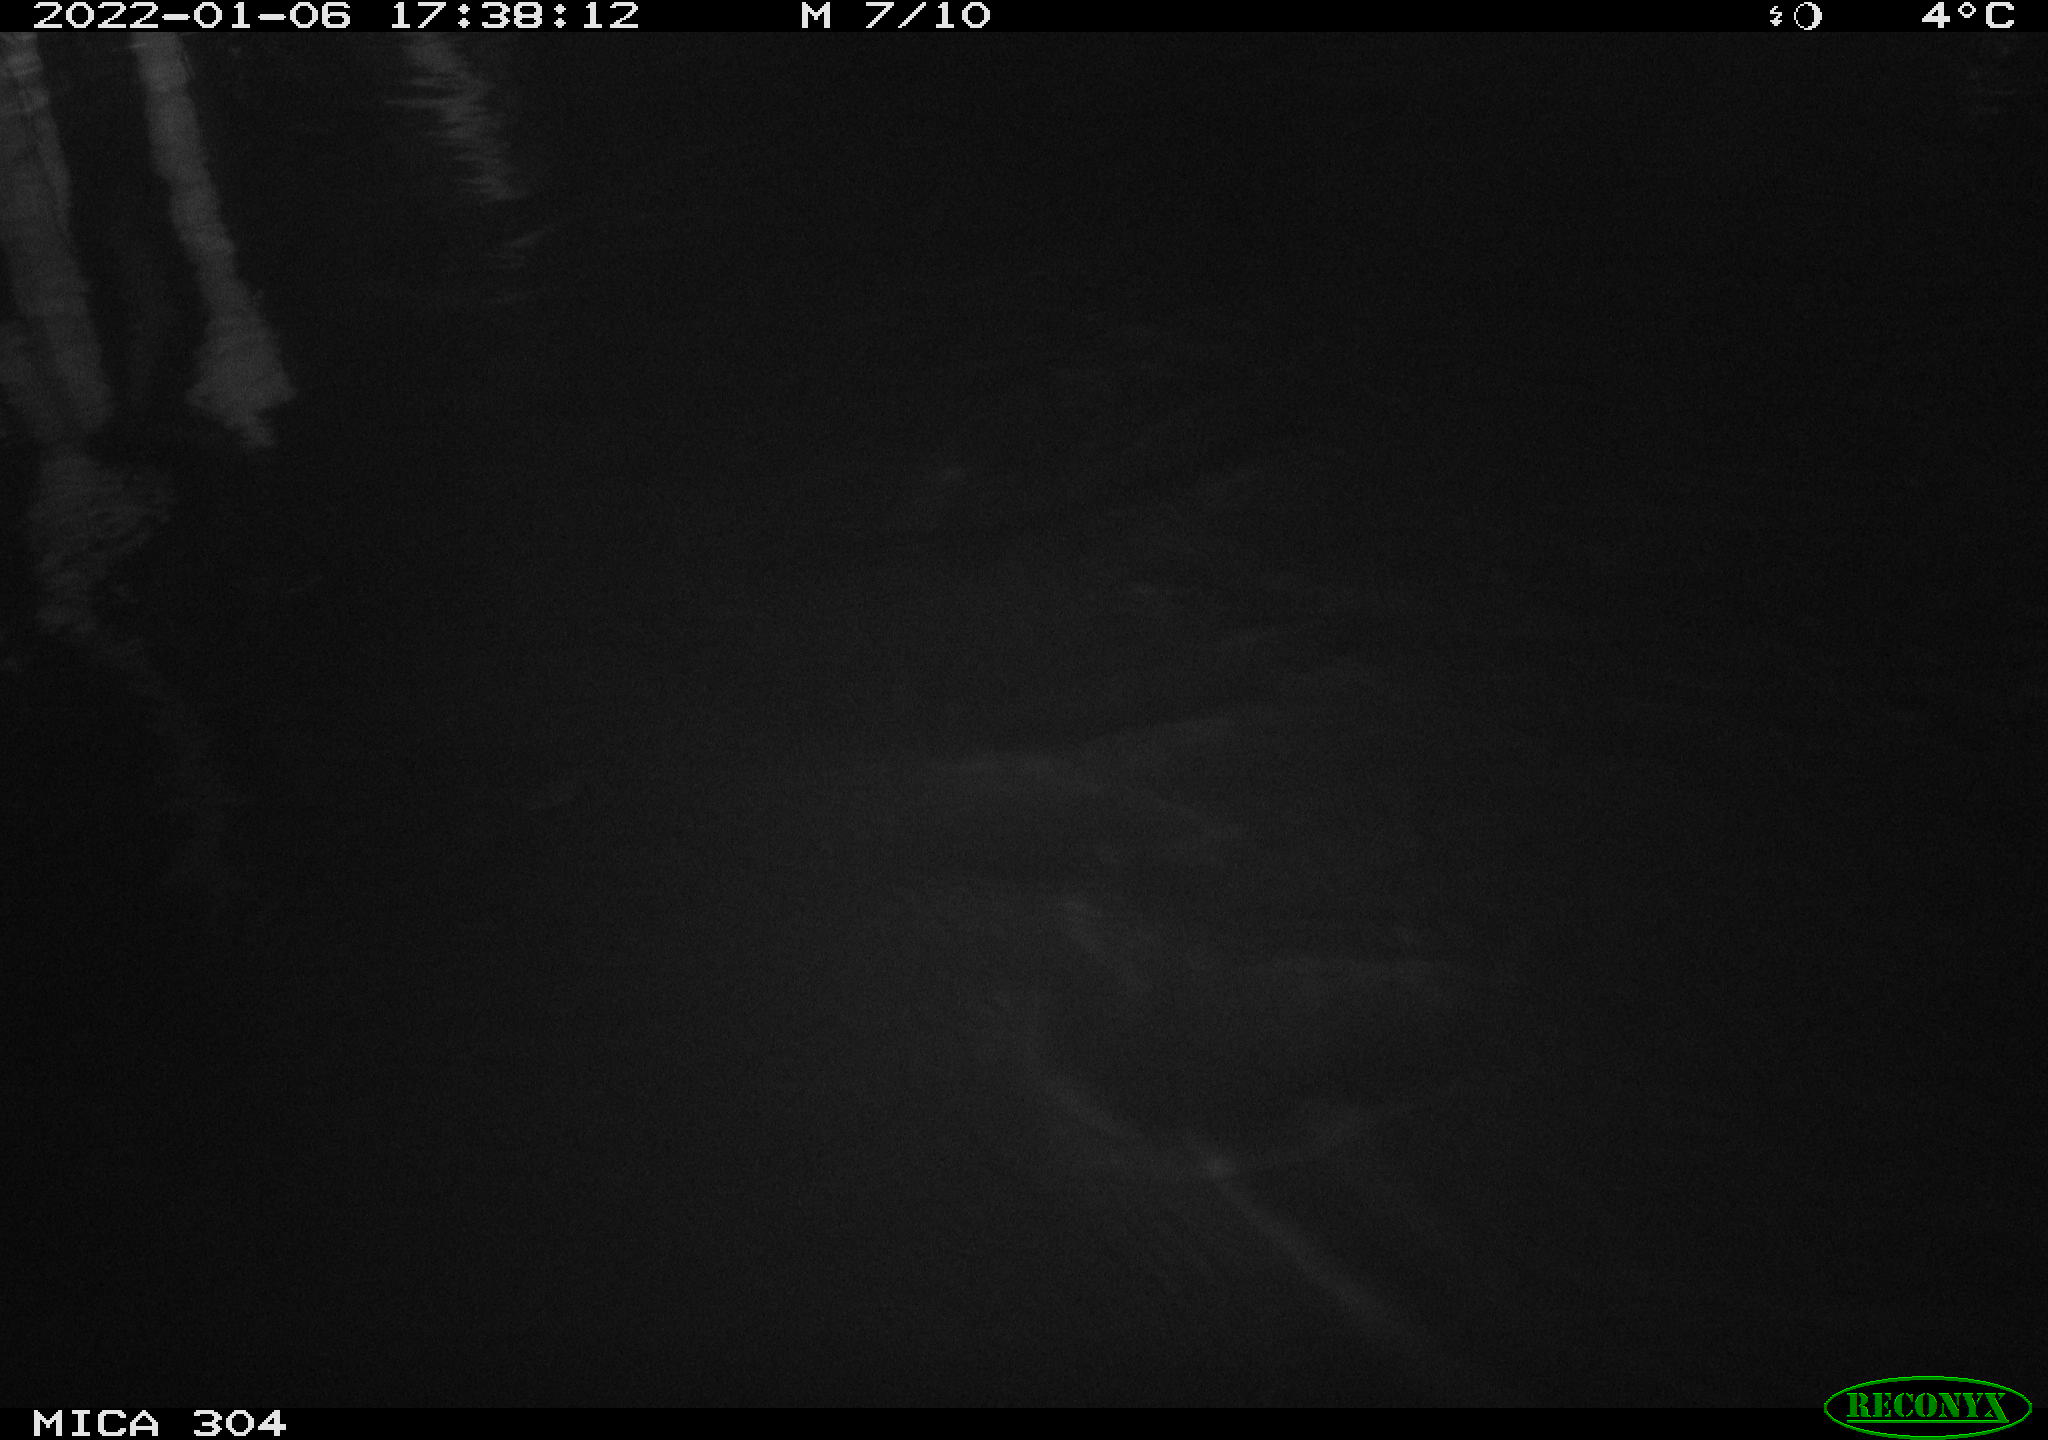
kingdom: Animalia
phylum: Chordata
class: Aves
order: Anseriformes
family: Anatidae
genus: Anas
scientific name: Anas
